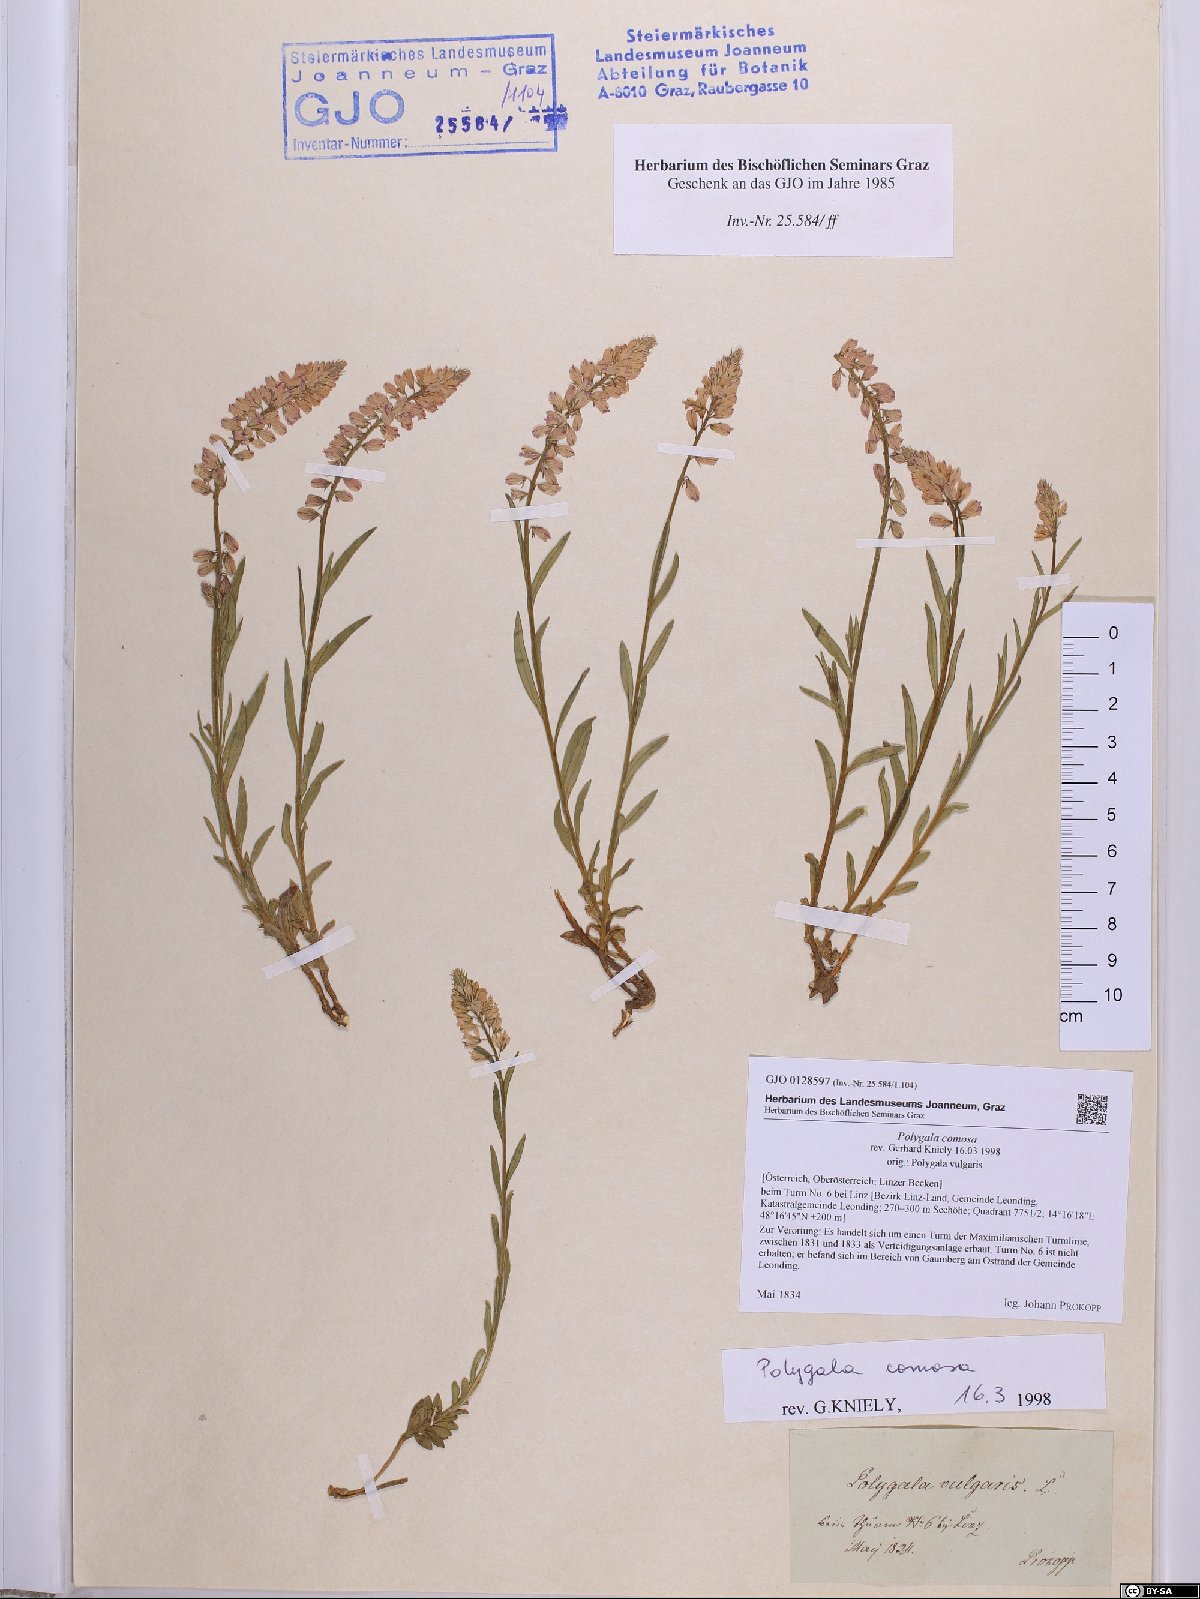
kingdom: Plantae
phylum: Tracheophyta
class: Magnoliopsida
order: Fabales
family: Polygalaceae
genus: Polygala
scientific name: Polygala comosa
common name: Tufted milkwort
